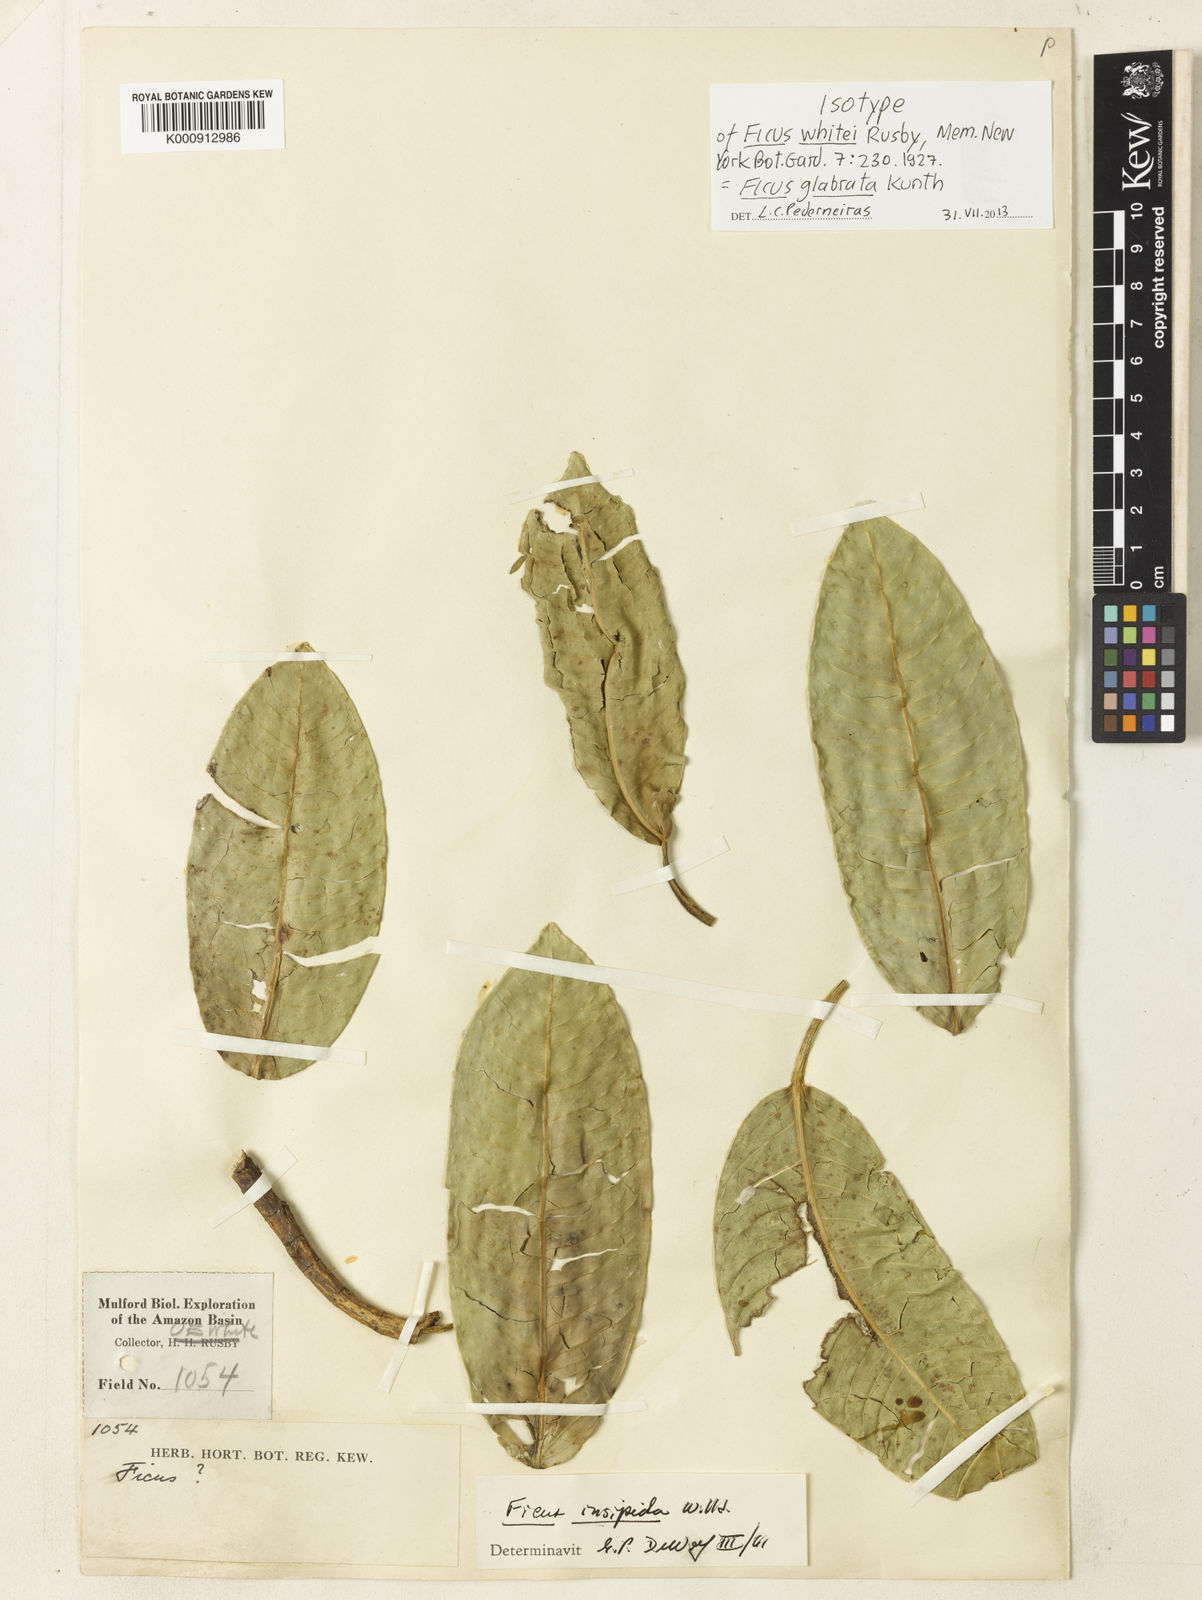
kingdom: Plantae
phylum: Tracheophyta
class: Magnoliopsida
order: Rosales
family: Moraceae
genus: Ficus
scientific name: Ficus insipida
